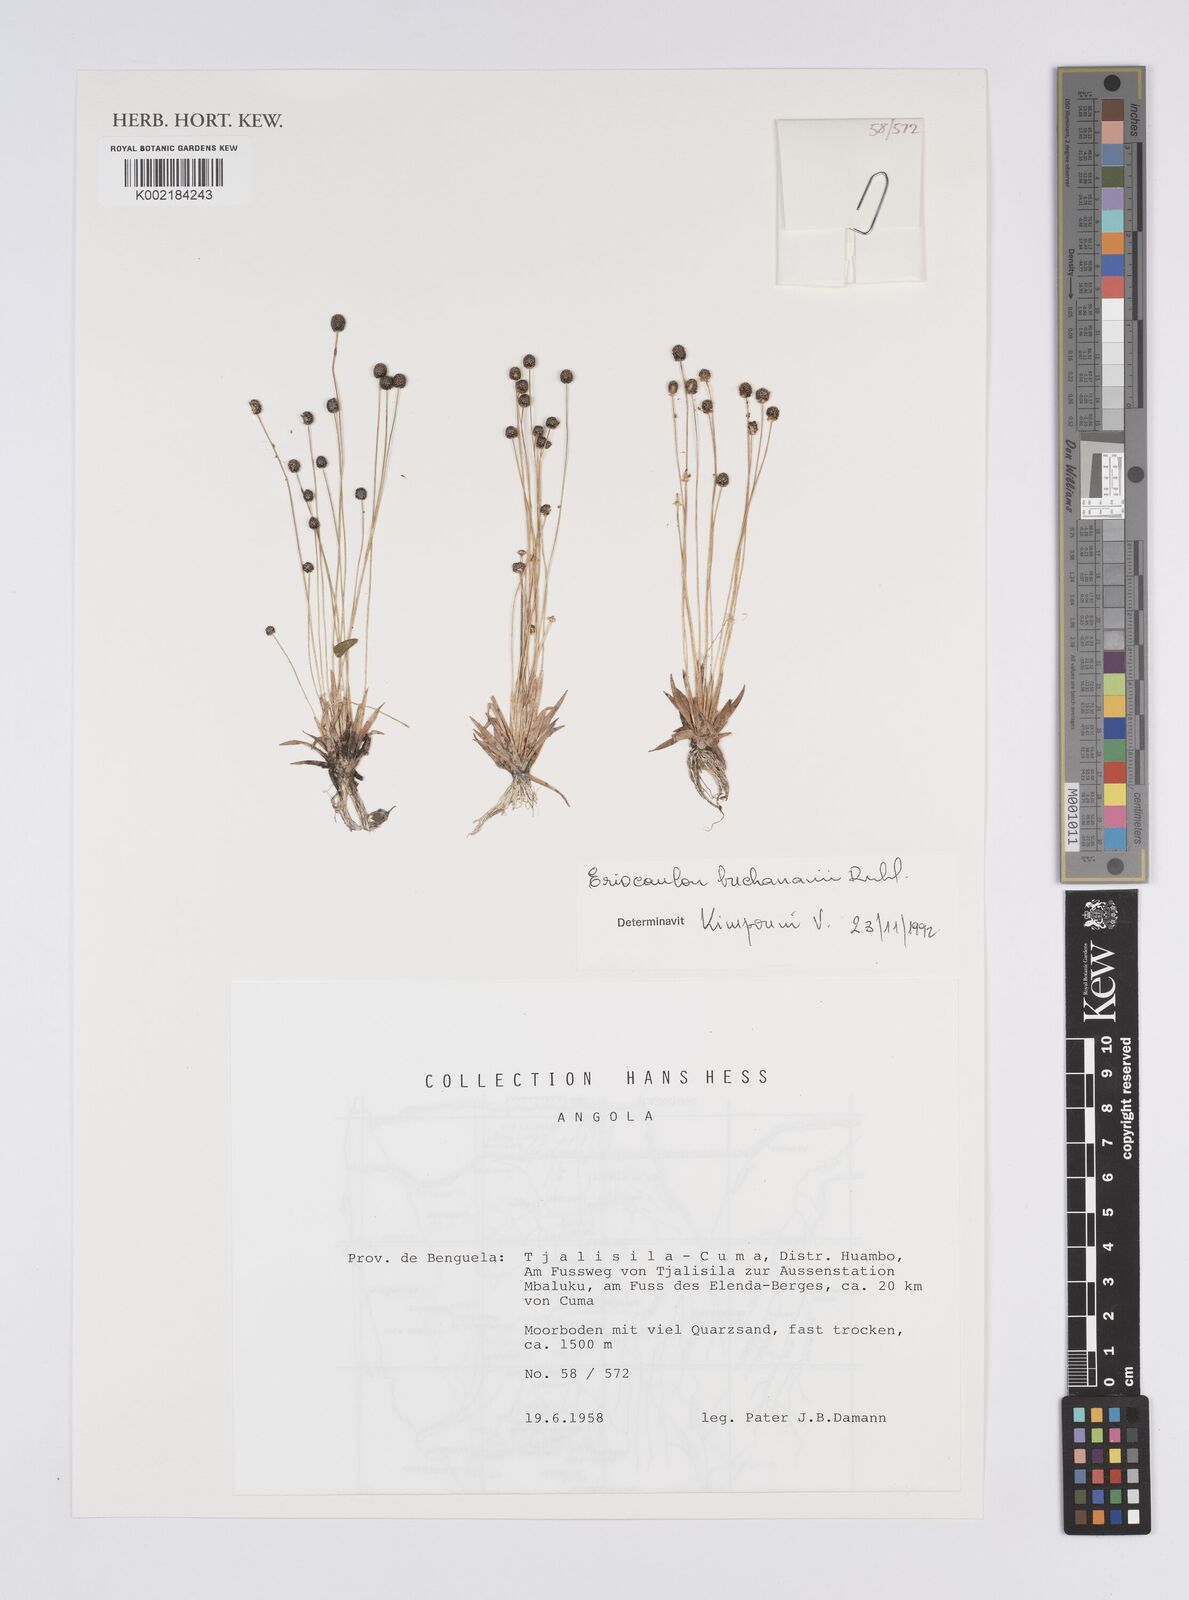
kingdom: Plantae
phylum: Tracheophyta
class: Liliopsida
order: Poales
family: Eriocaulaceae
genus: Eriocaulon
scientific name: Eriocaulon buchananii
